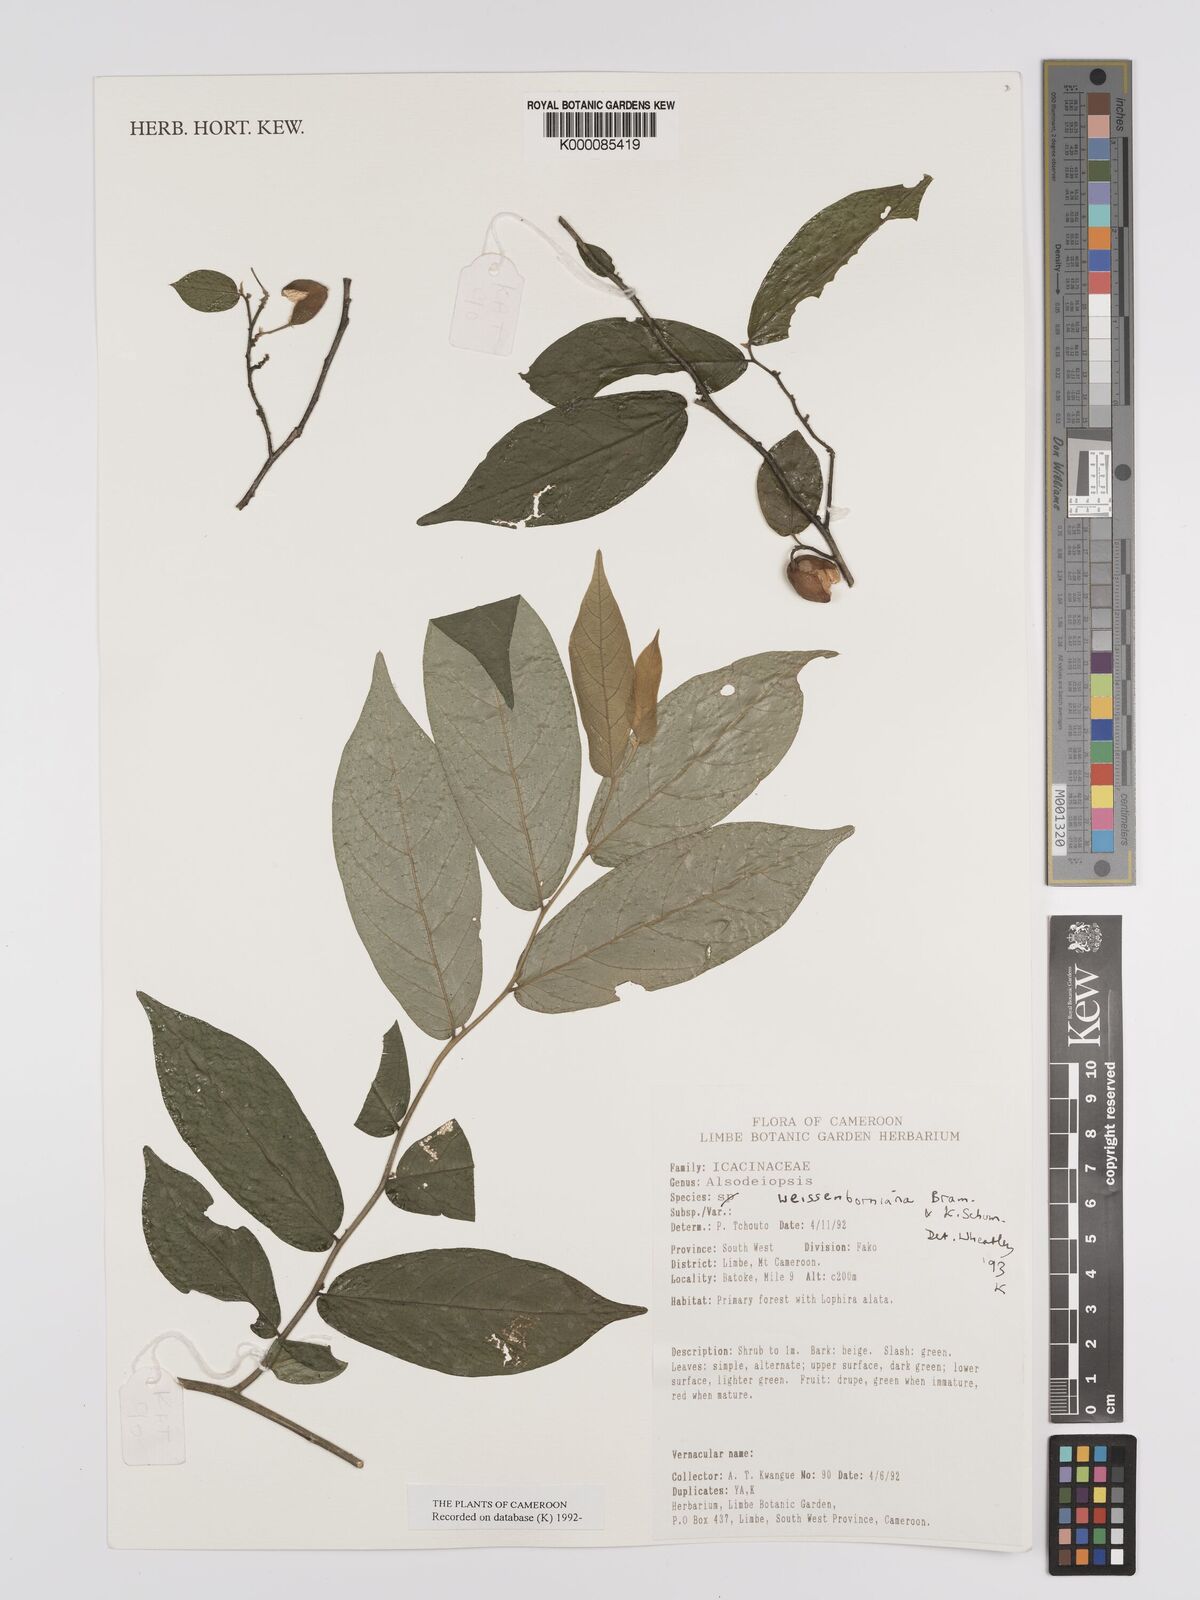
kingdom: Plantae
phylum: Tracheophyta
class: Magnoliopsida
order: Icacinales
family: Icacinaceae
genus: Alsodeiopsis
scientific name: Alsodeiopsis mannii
